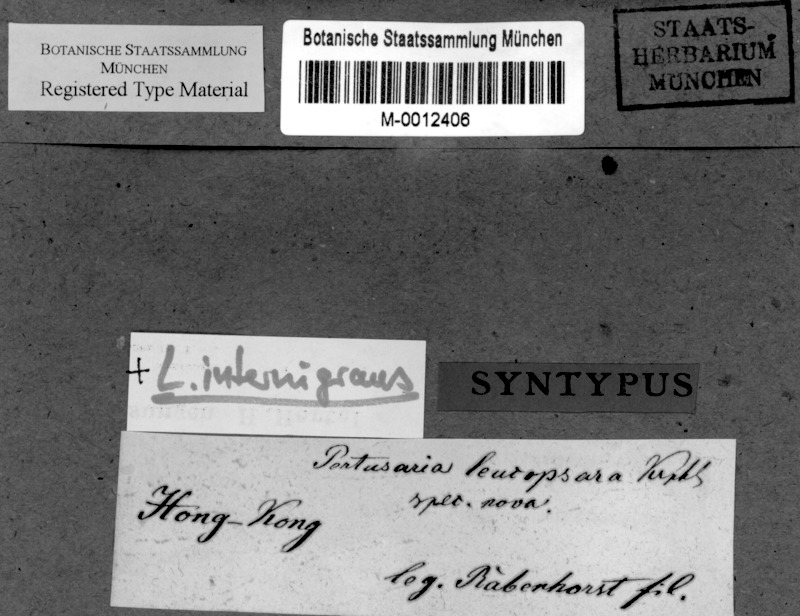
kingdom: Fungi
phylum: Ascomycota
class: Lecanoromycetes
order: Pertusariales
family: Pertusariaceae
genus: Lepra
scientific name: Lepra leucopsara
